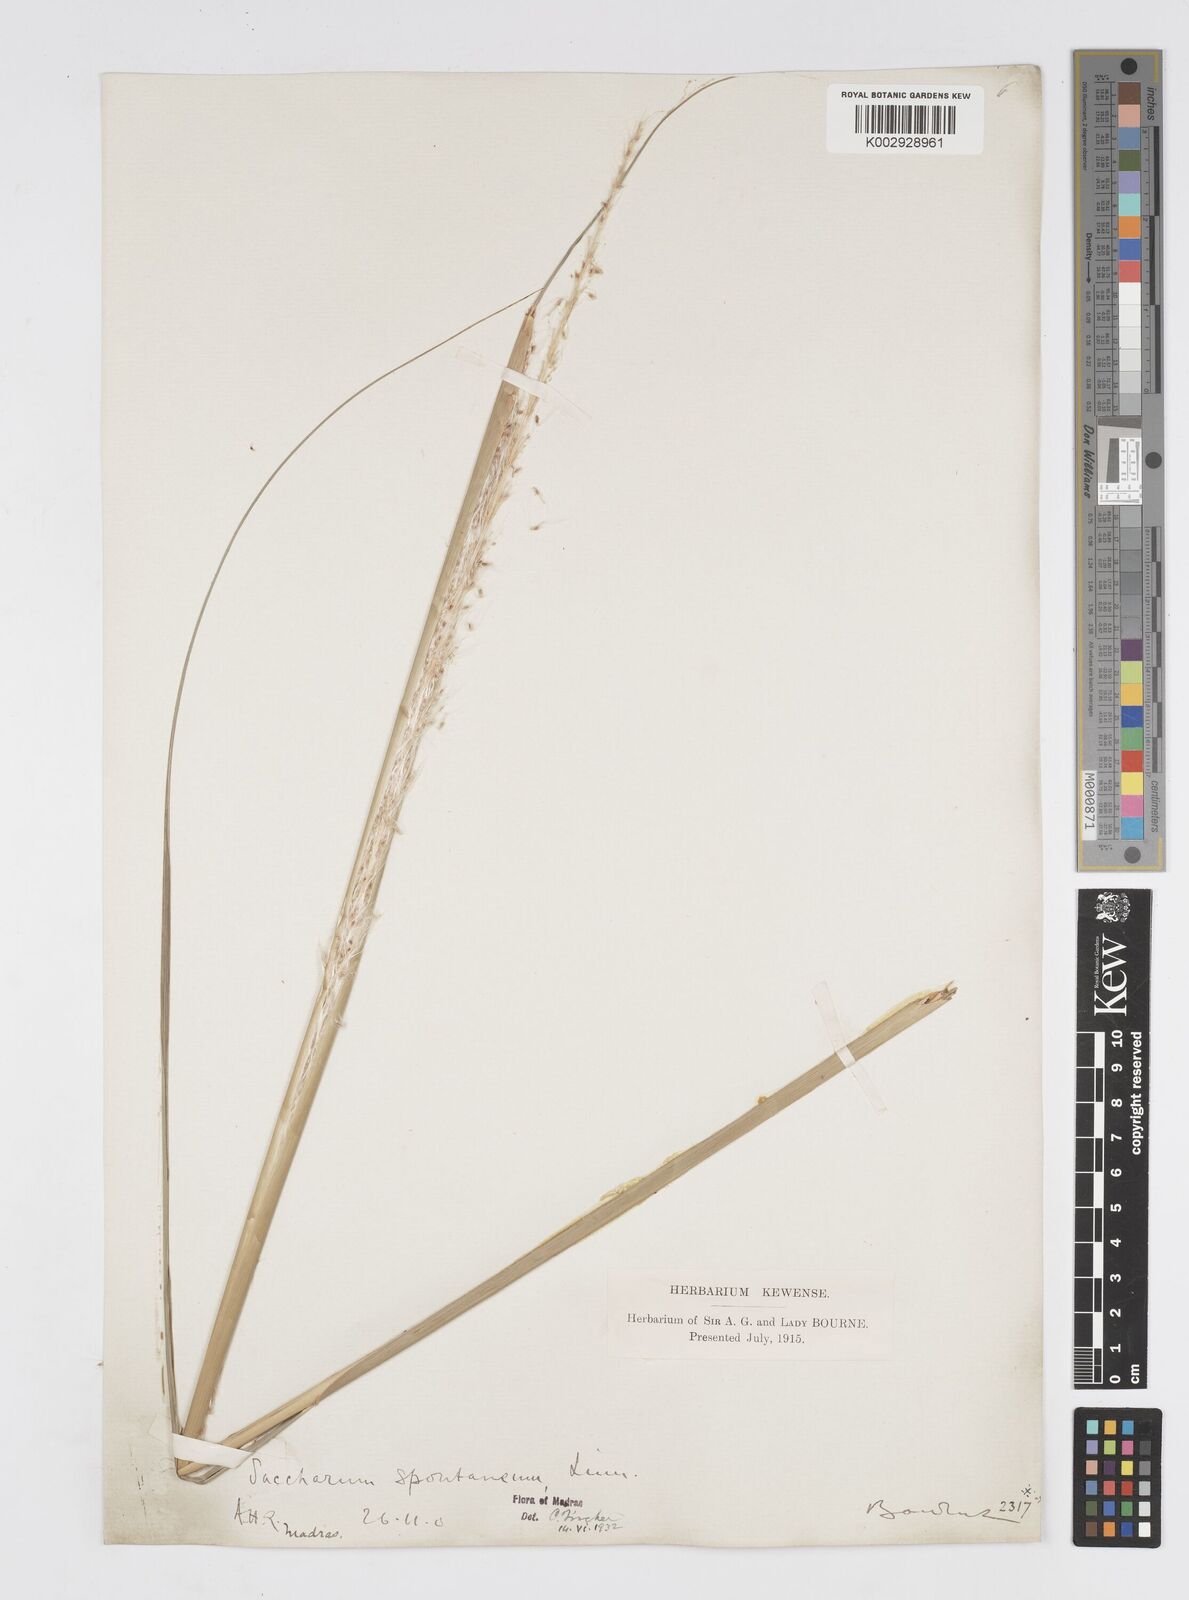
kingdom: Plantae
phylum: Tracheophyta
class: Liliopsida
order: Poales
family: Poaceae
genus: Saccharum
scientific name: Saccharum spontaneum
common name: Wild sugarcane
